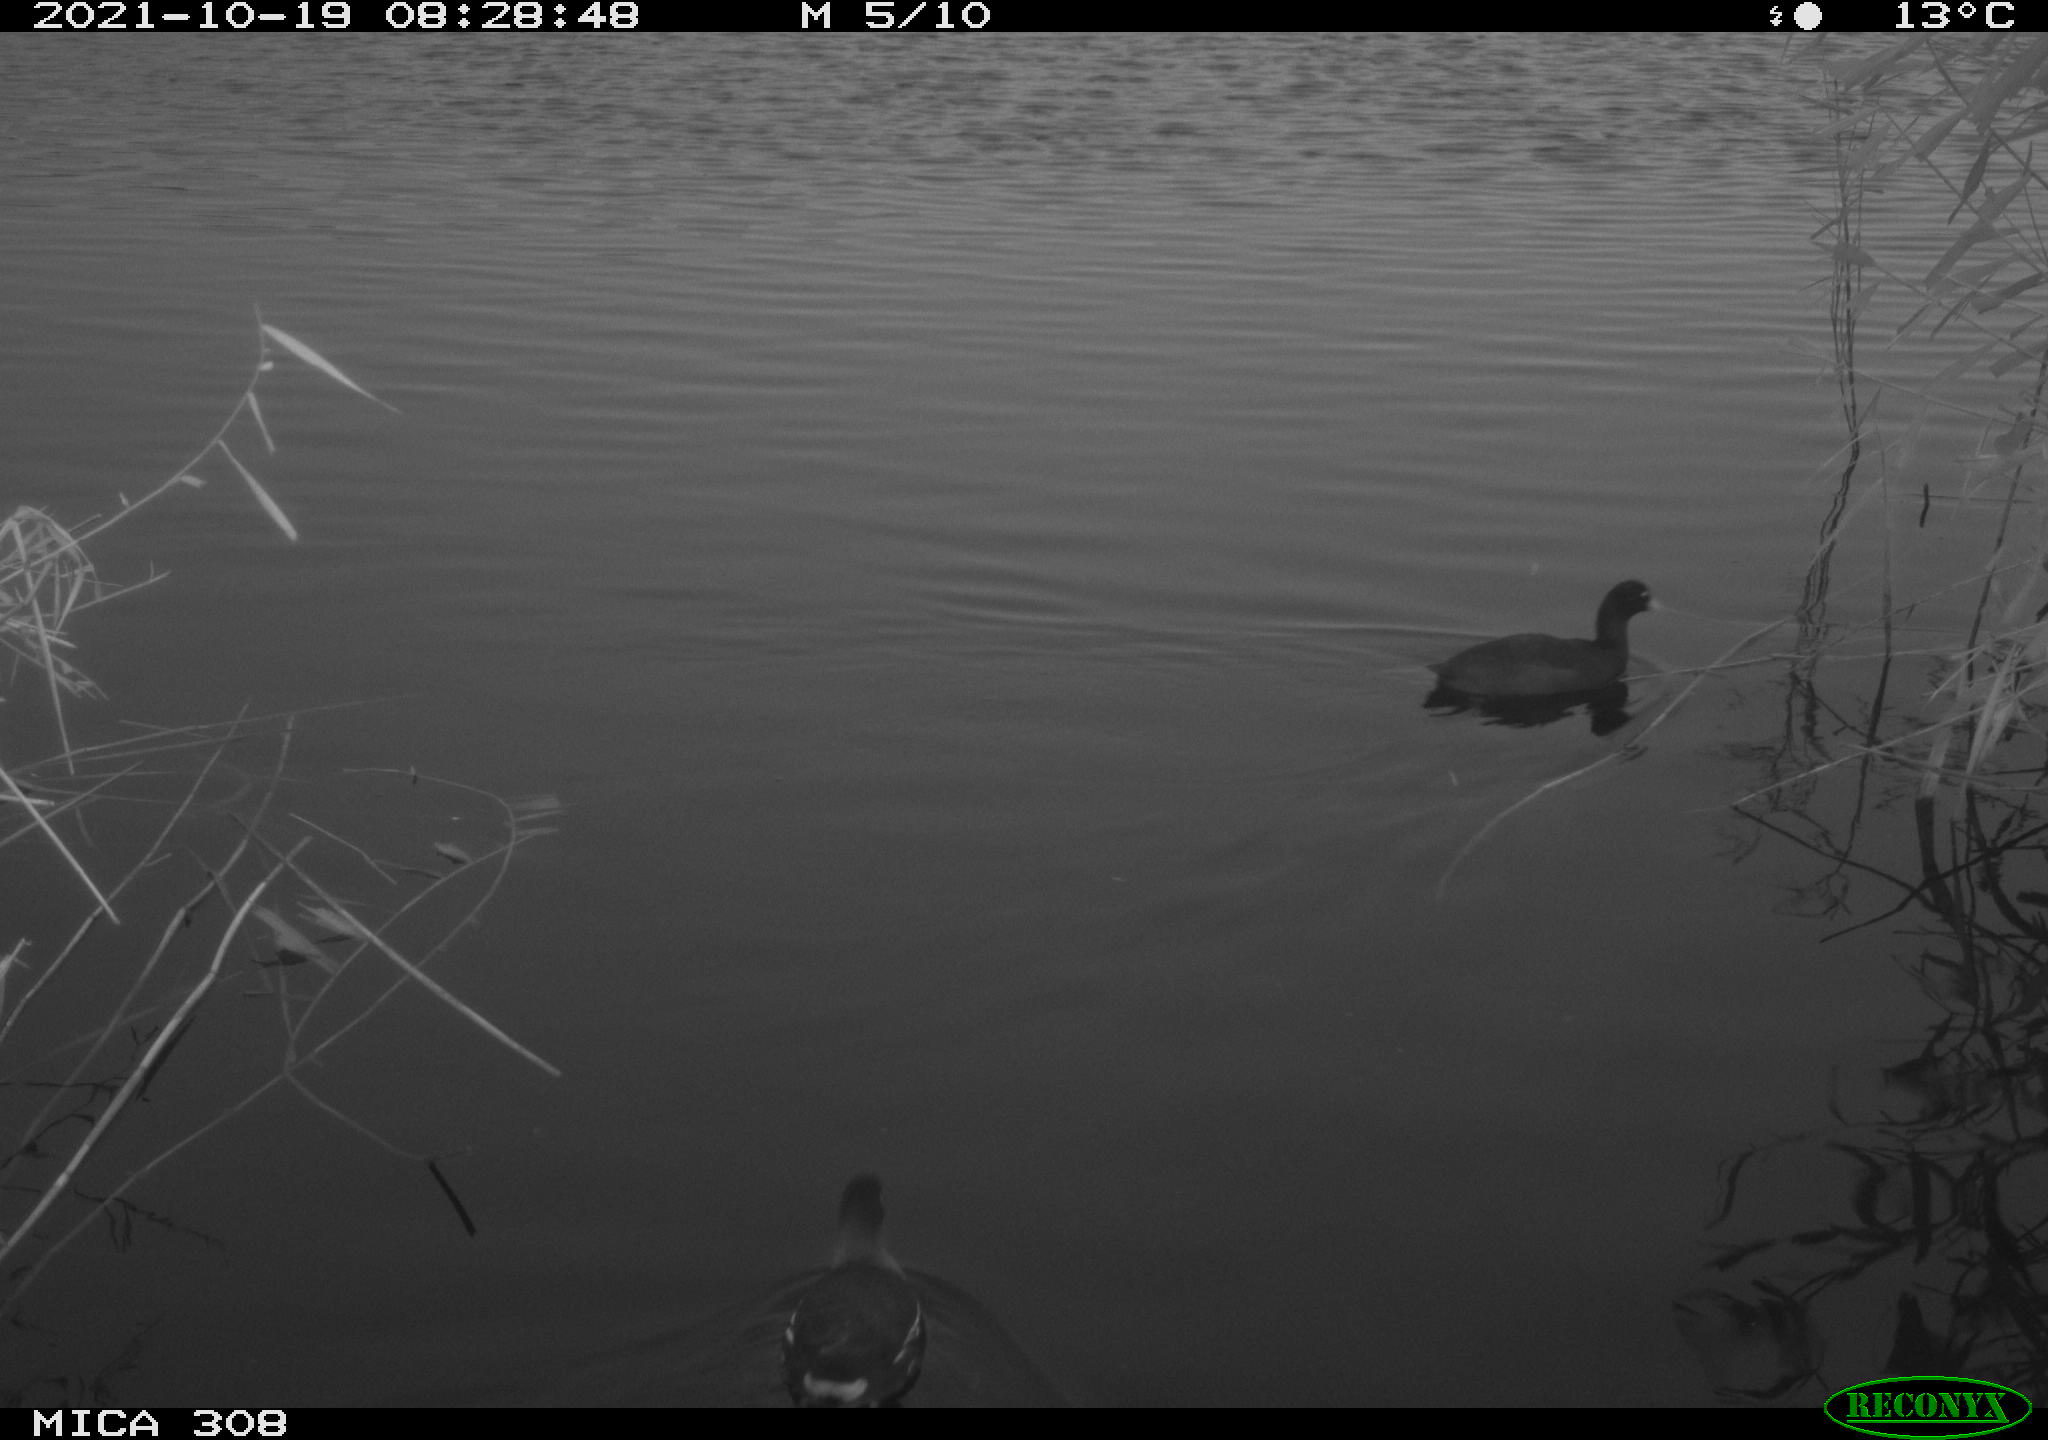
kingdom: Animalia
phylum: Chordata
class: Aves
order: Gruiformes
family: Rallidae
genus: Gallinula
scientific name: Gallinula chloropus
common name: Common moorhen
